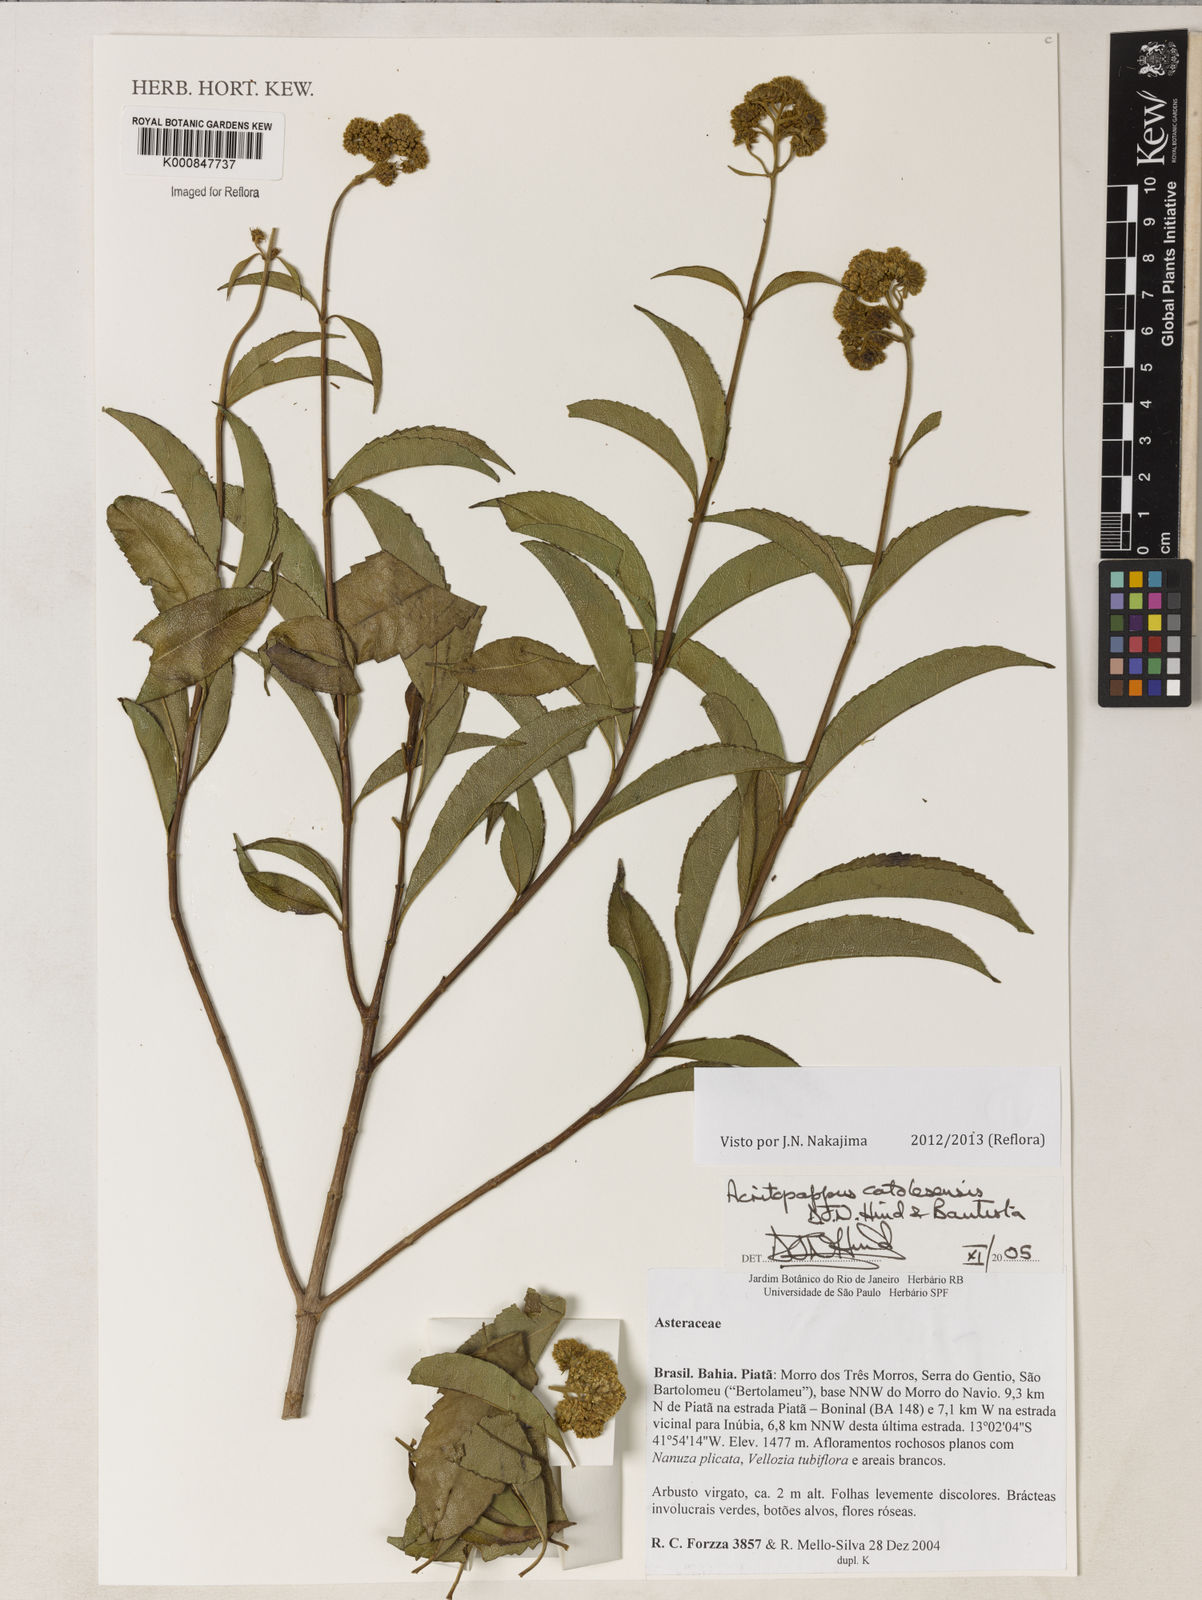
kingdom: Plantae
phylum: Tracheophyta
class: Magnoliopsida
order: Asterales
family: Asteraceae
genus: Acritopappus
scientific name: Acritopappus catolesensis
